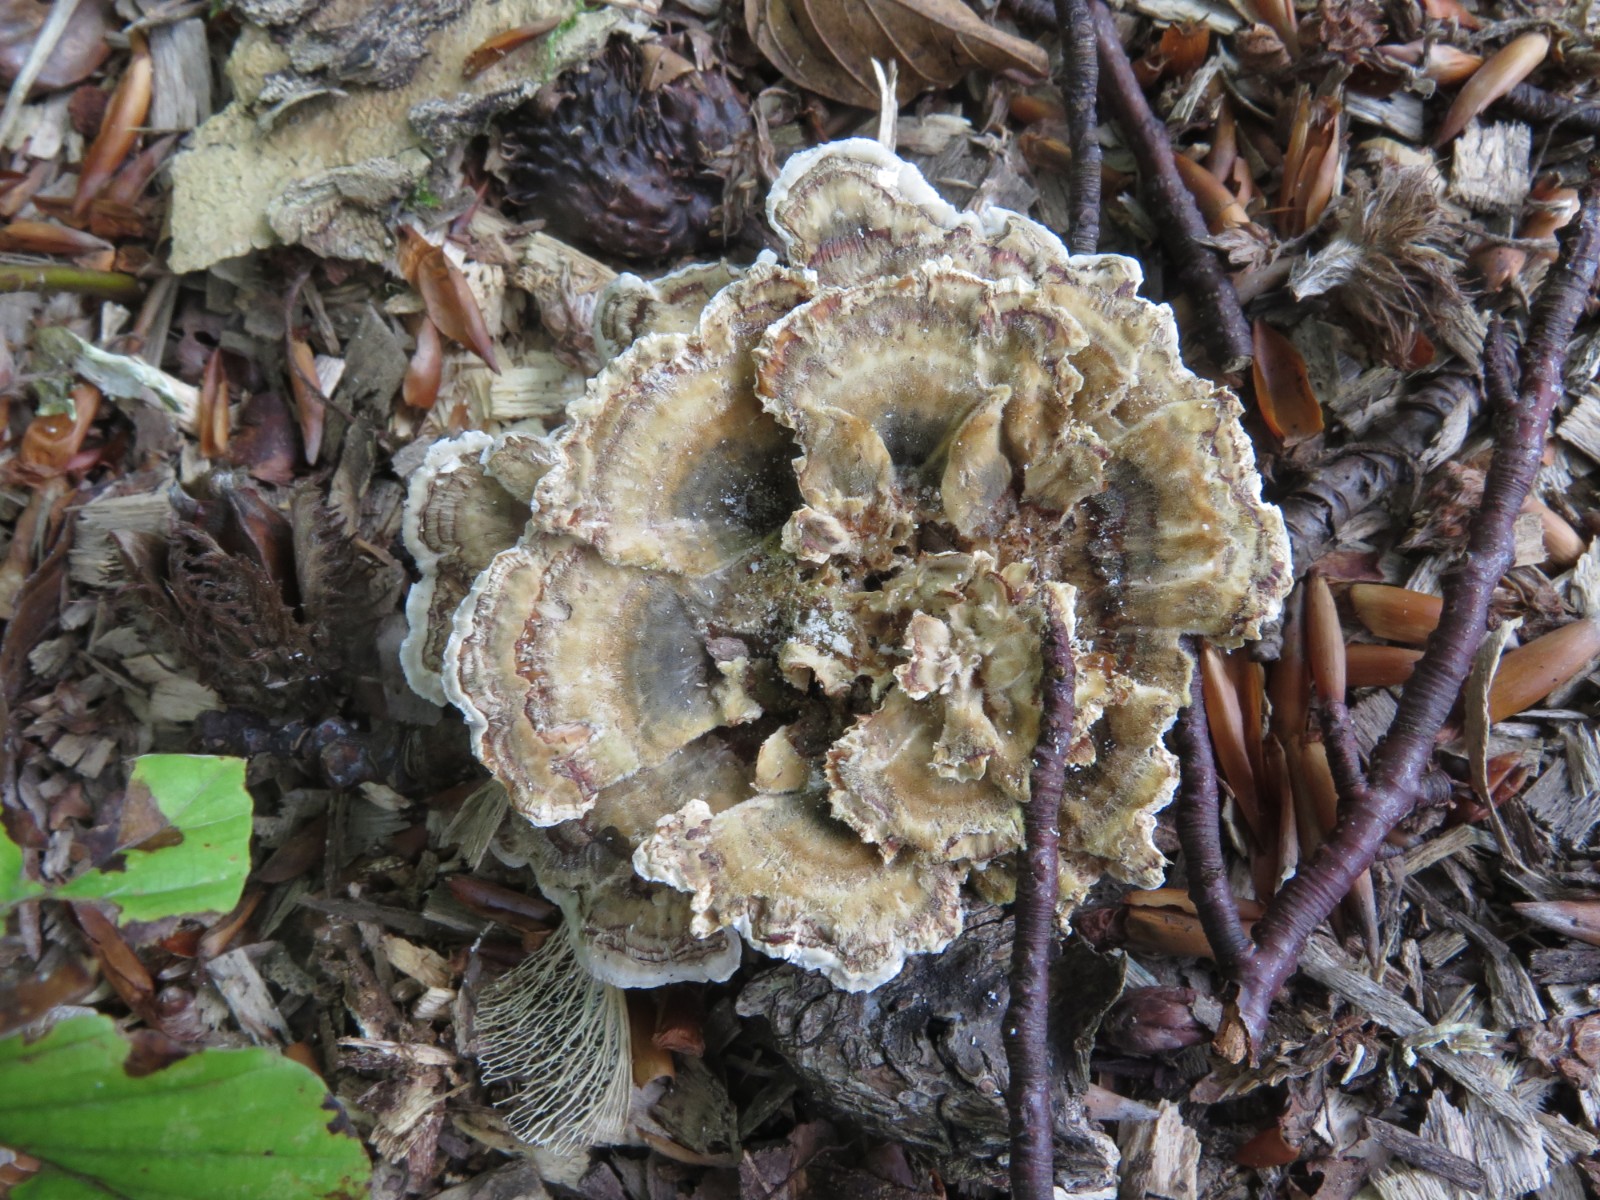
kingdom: Fungi
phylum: Basidiomycota
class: Agaricomycetes
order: Polyporales
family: Polyporaceae
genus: Trametes
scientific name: Trametes versicolor
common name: broget læderporesvamp
